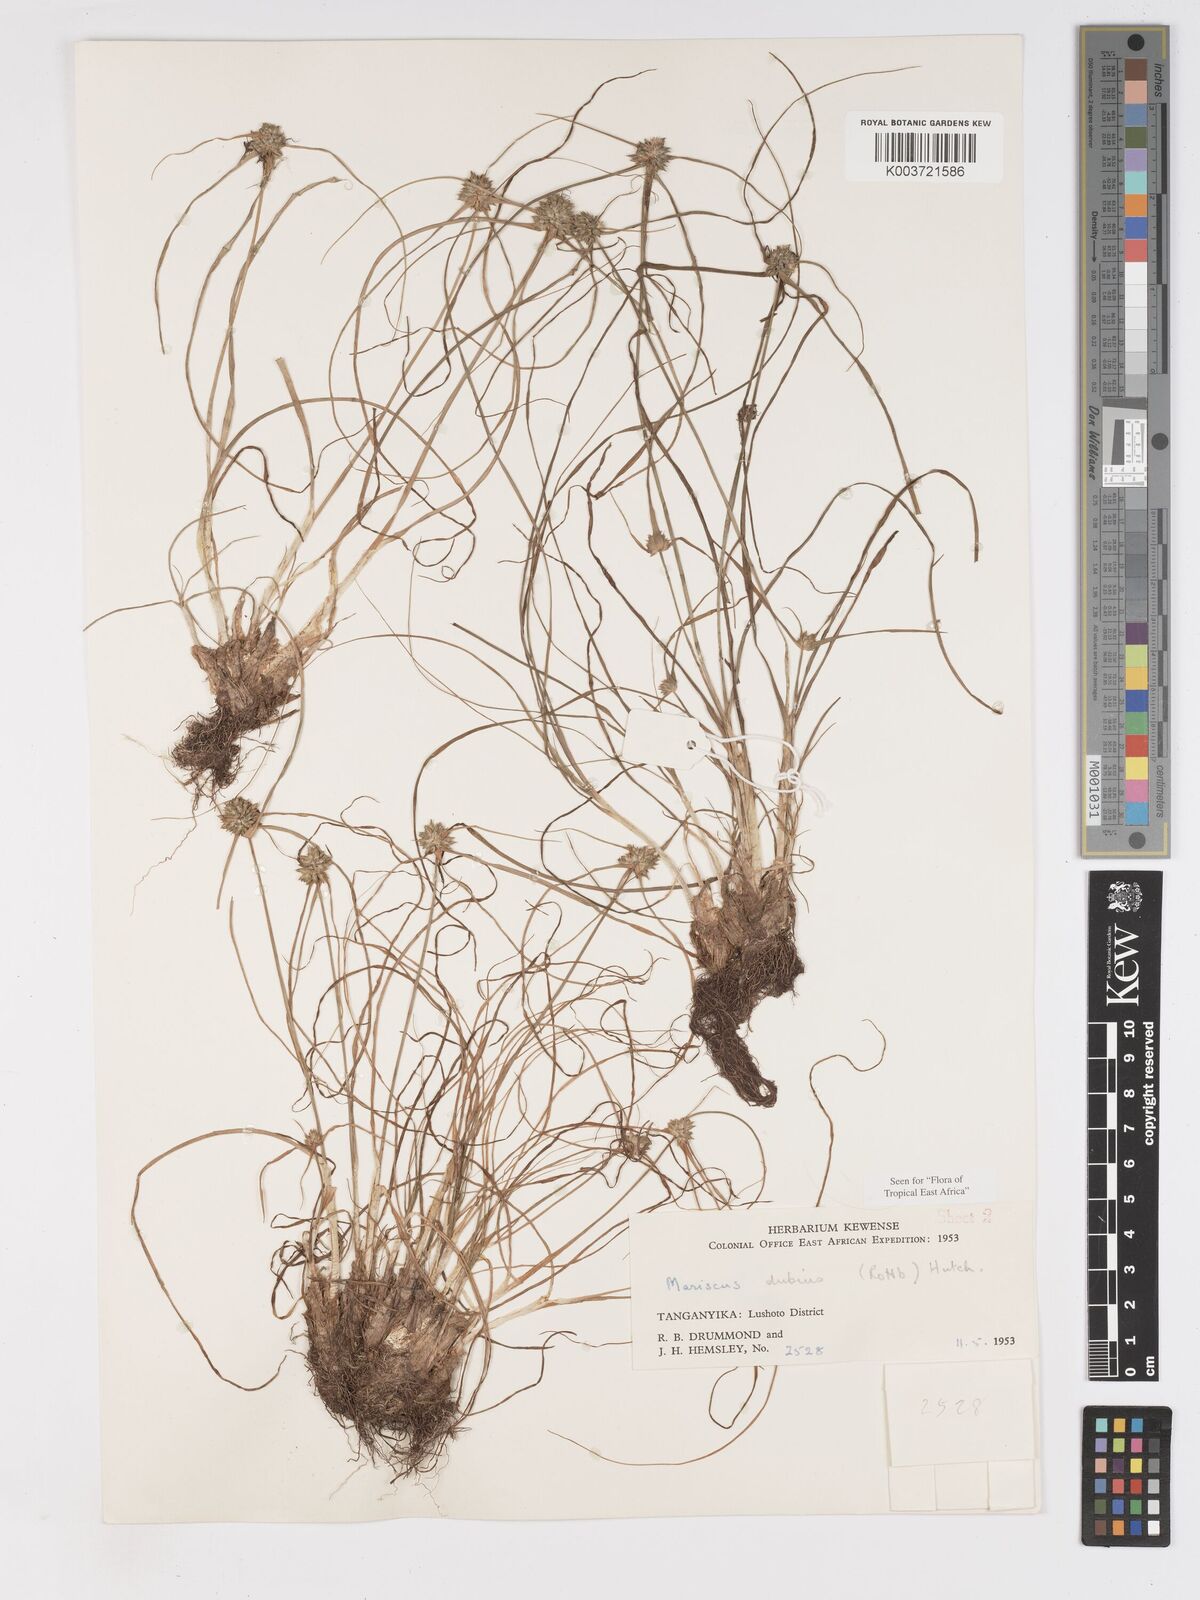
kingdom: Plantae
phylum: Tracheophyta
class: Liliopsida
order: Poales
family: Cyperaceae
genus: Cyperus
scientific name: Cyperus dubius
